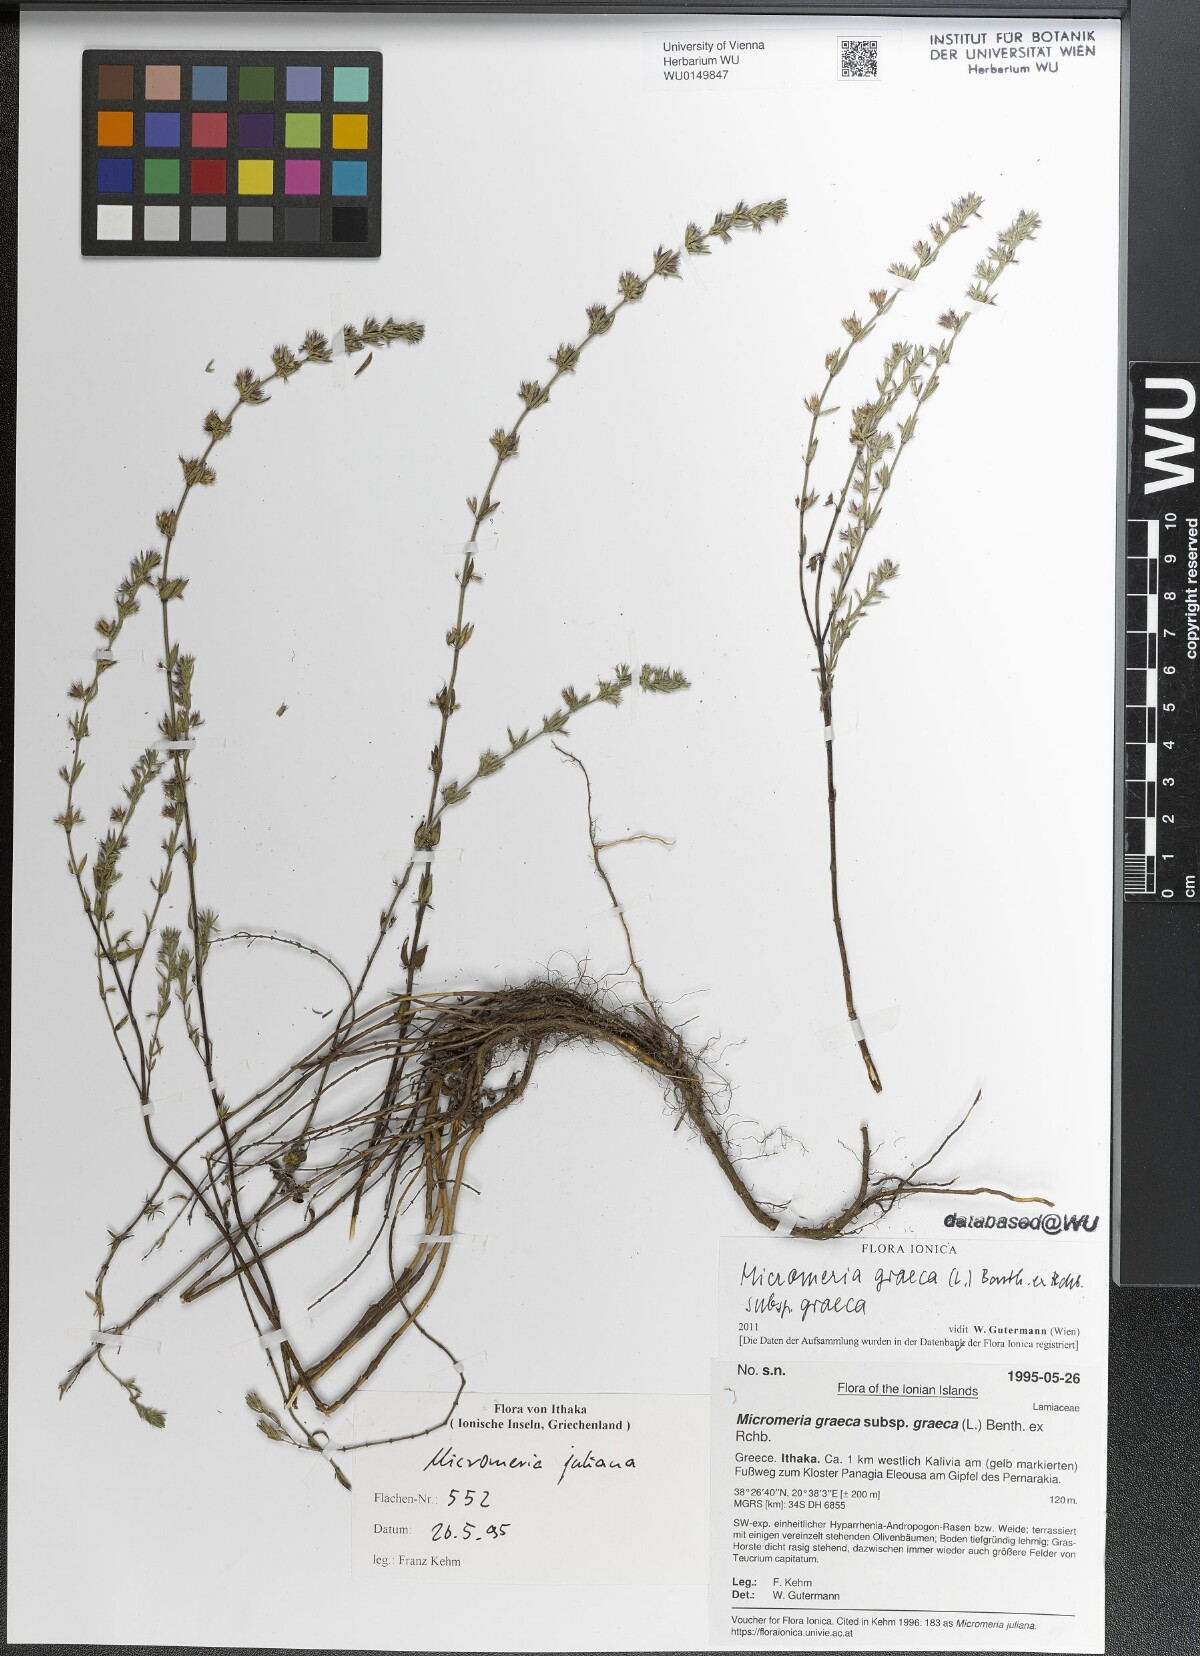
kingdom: Plantae
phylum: Tracheophyta
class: Magnoliopsida
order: Lamiales
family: Lamiaceae
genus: Micromeria
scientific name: Micromeria graeca
